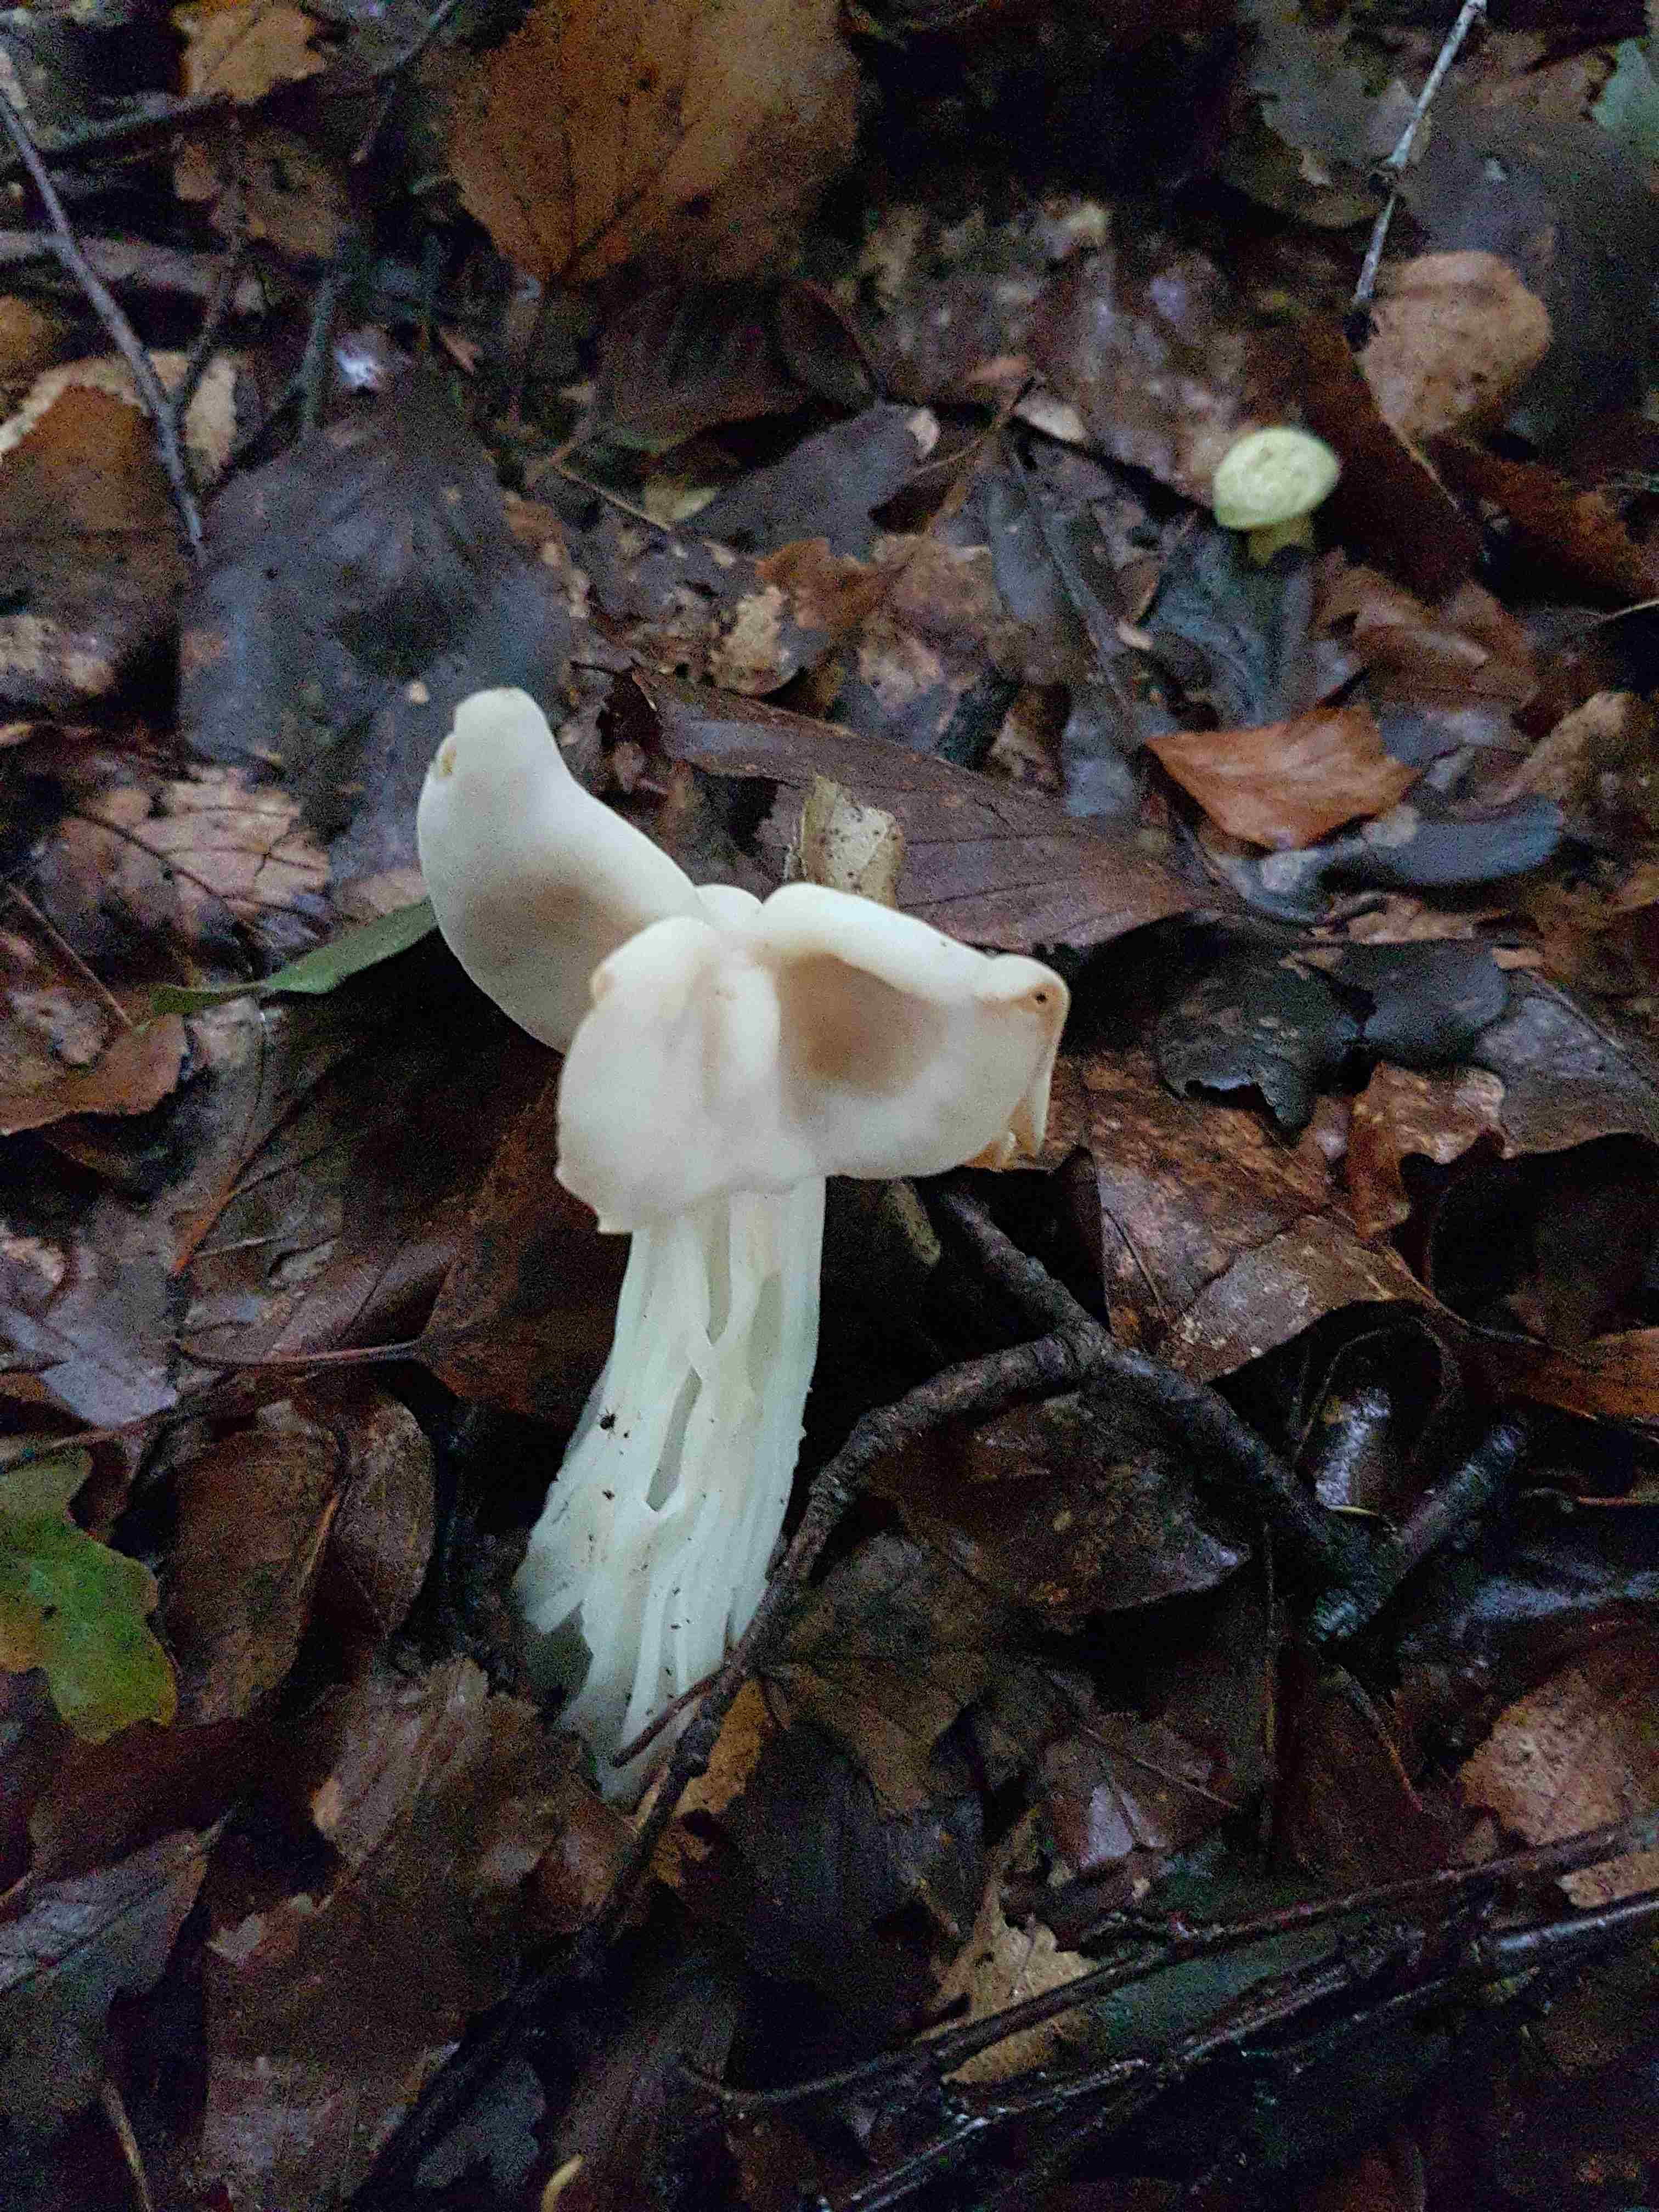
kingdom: Fungi
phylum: Ascomycota
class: Pezizomycetes
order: Pezizales
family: Helvellaceae
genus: Helvella
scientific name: Helvella crispa
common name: kruset foldhat
